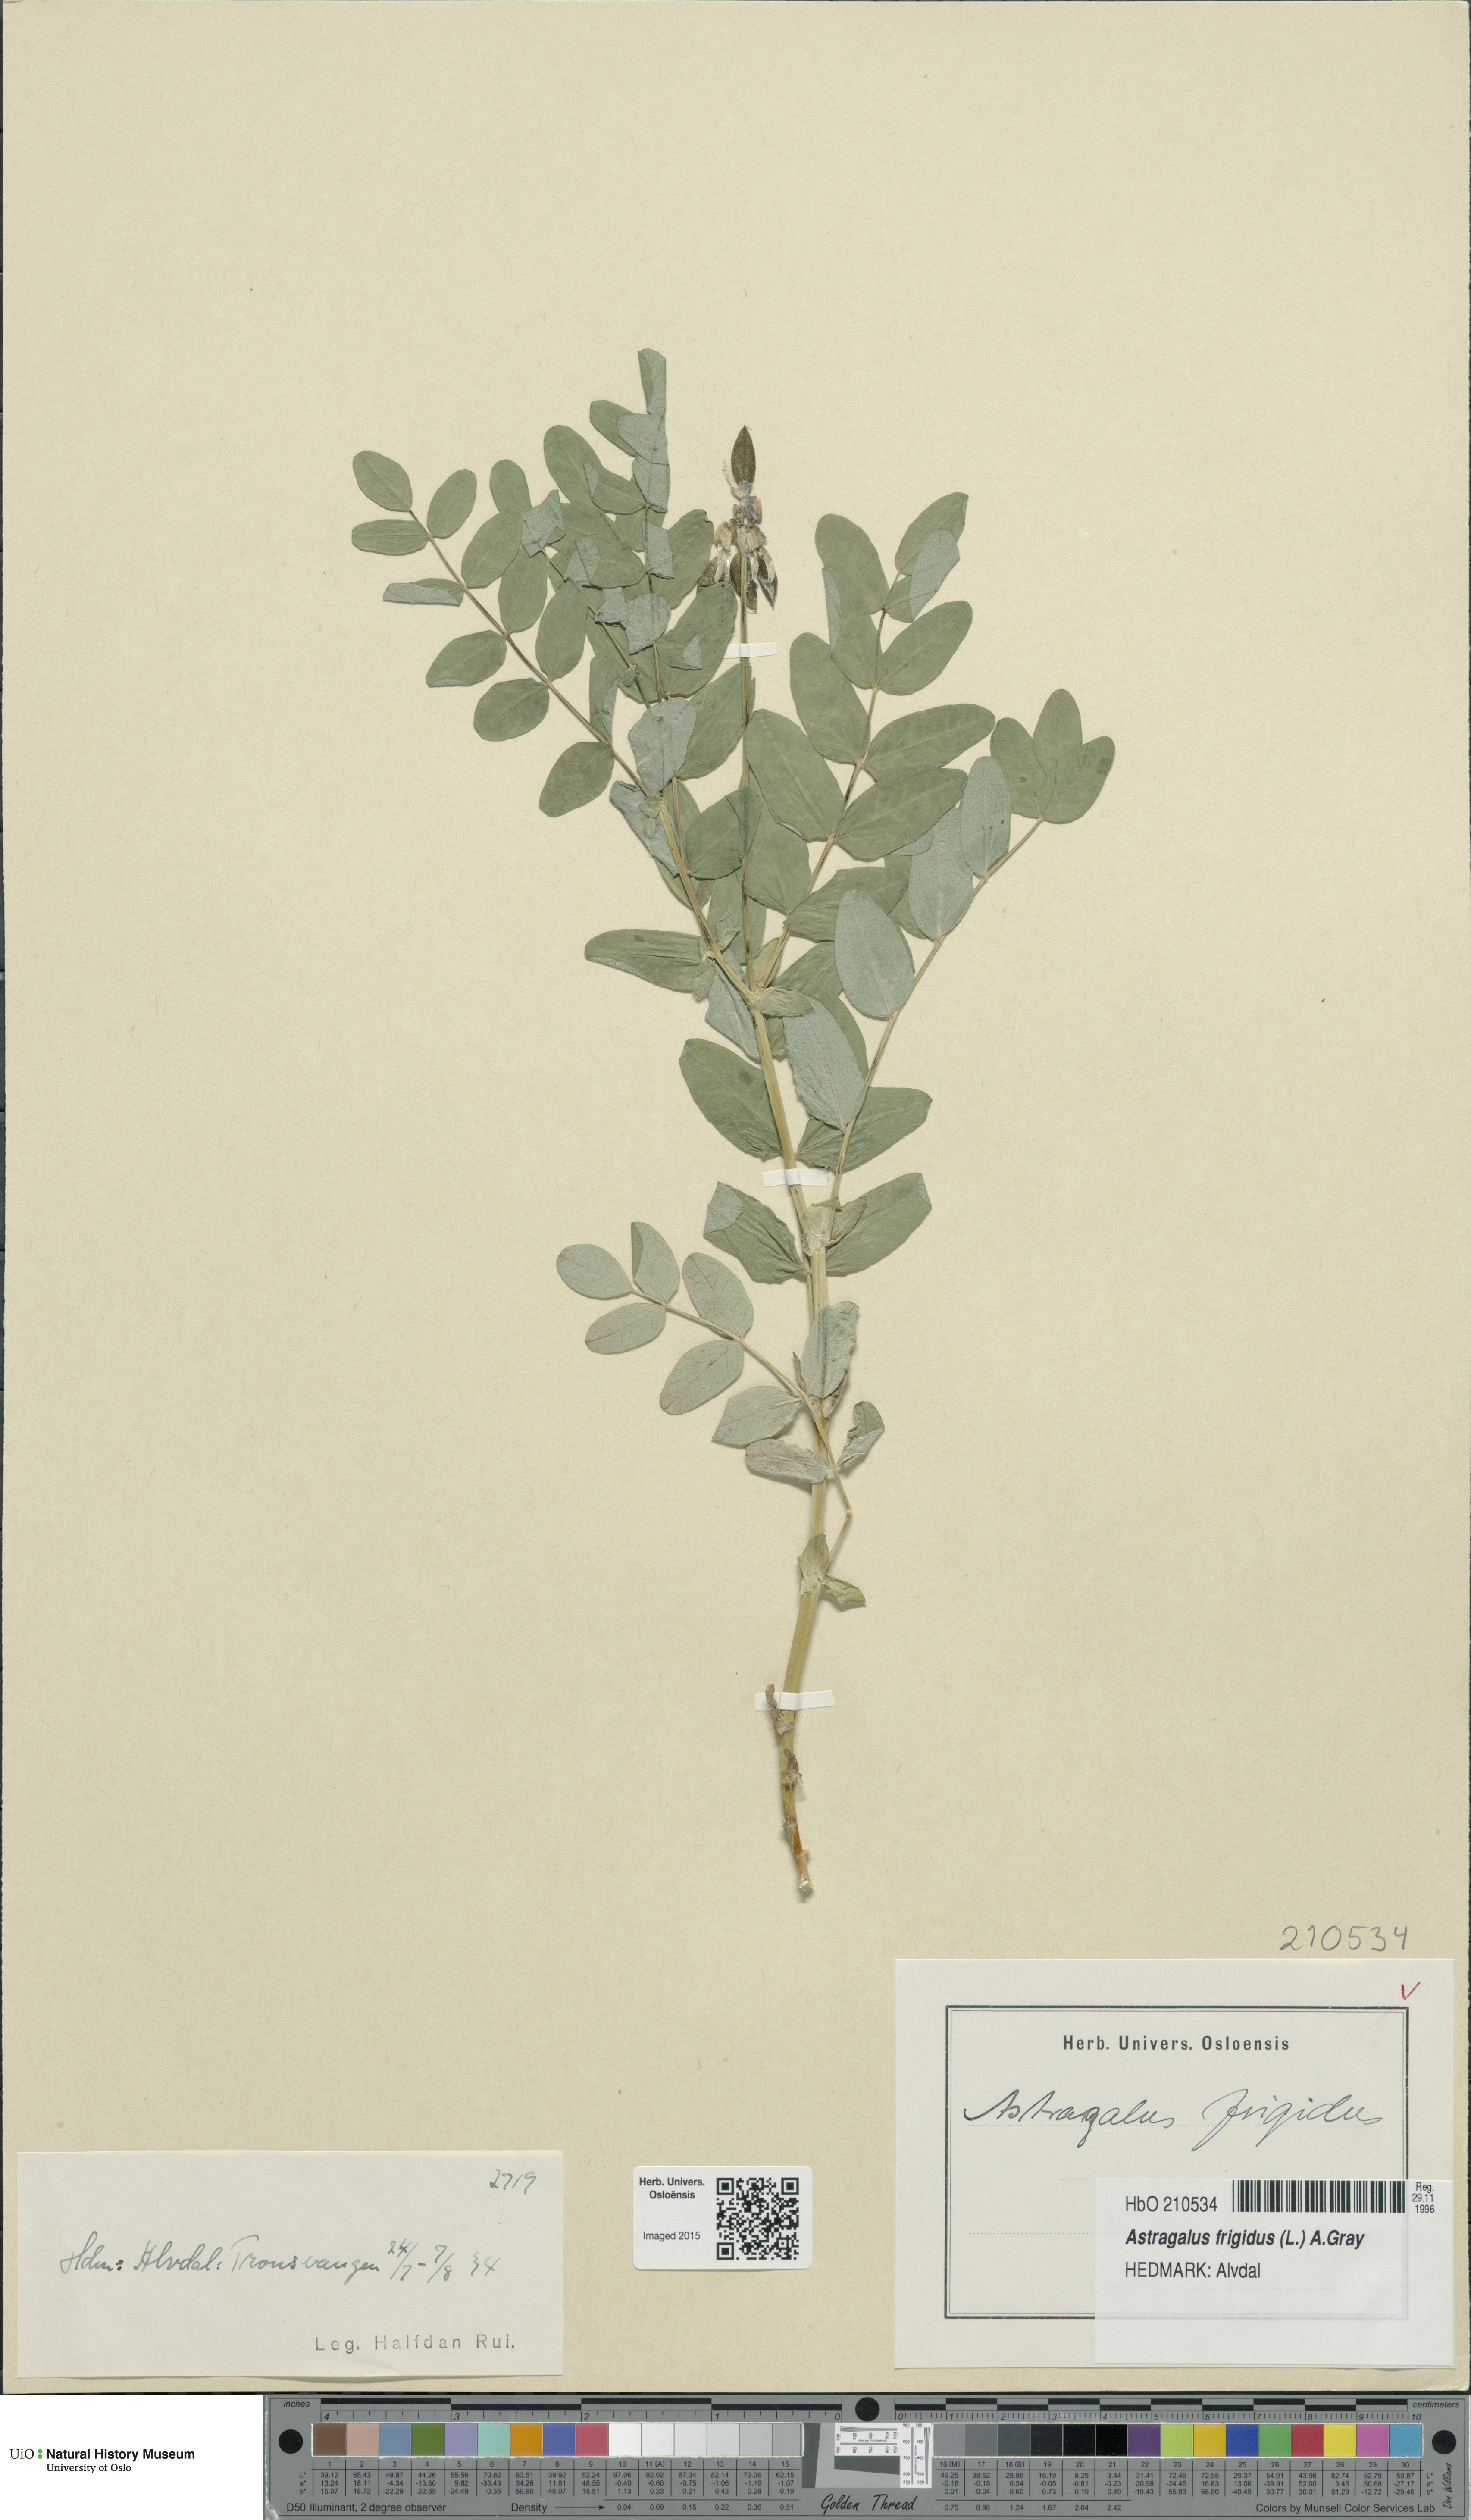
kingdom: Plantae
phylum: Tracheophyta
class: Magnoliopsida
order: Fabales
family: Fabaceae
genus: Astragalus
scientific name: Astragalus frigidus
